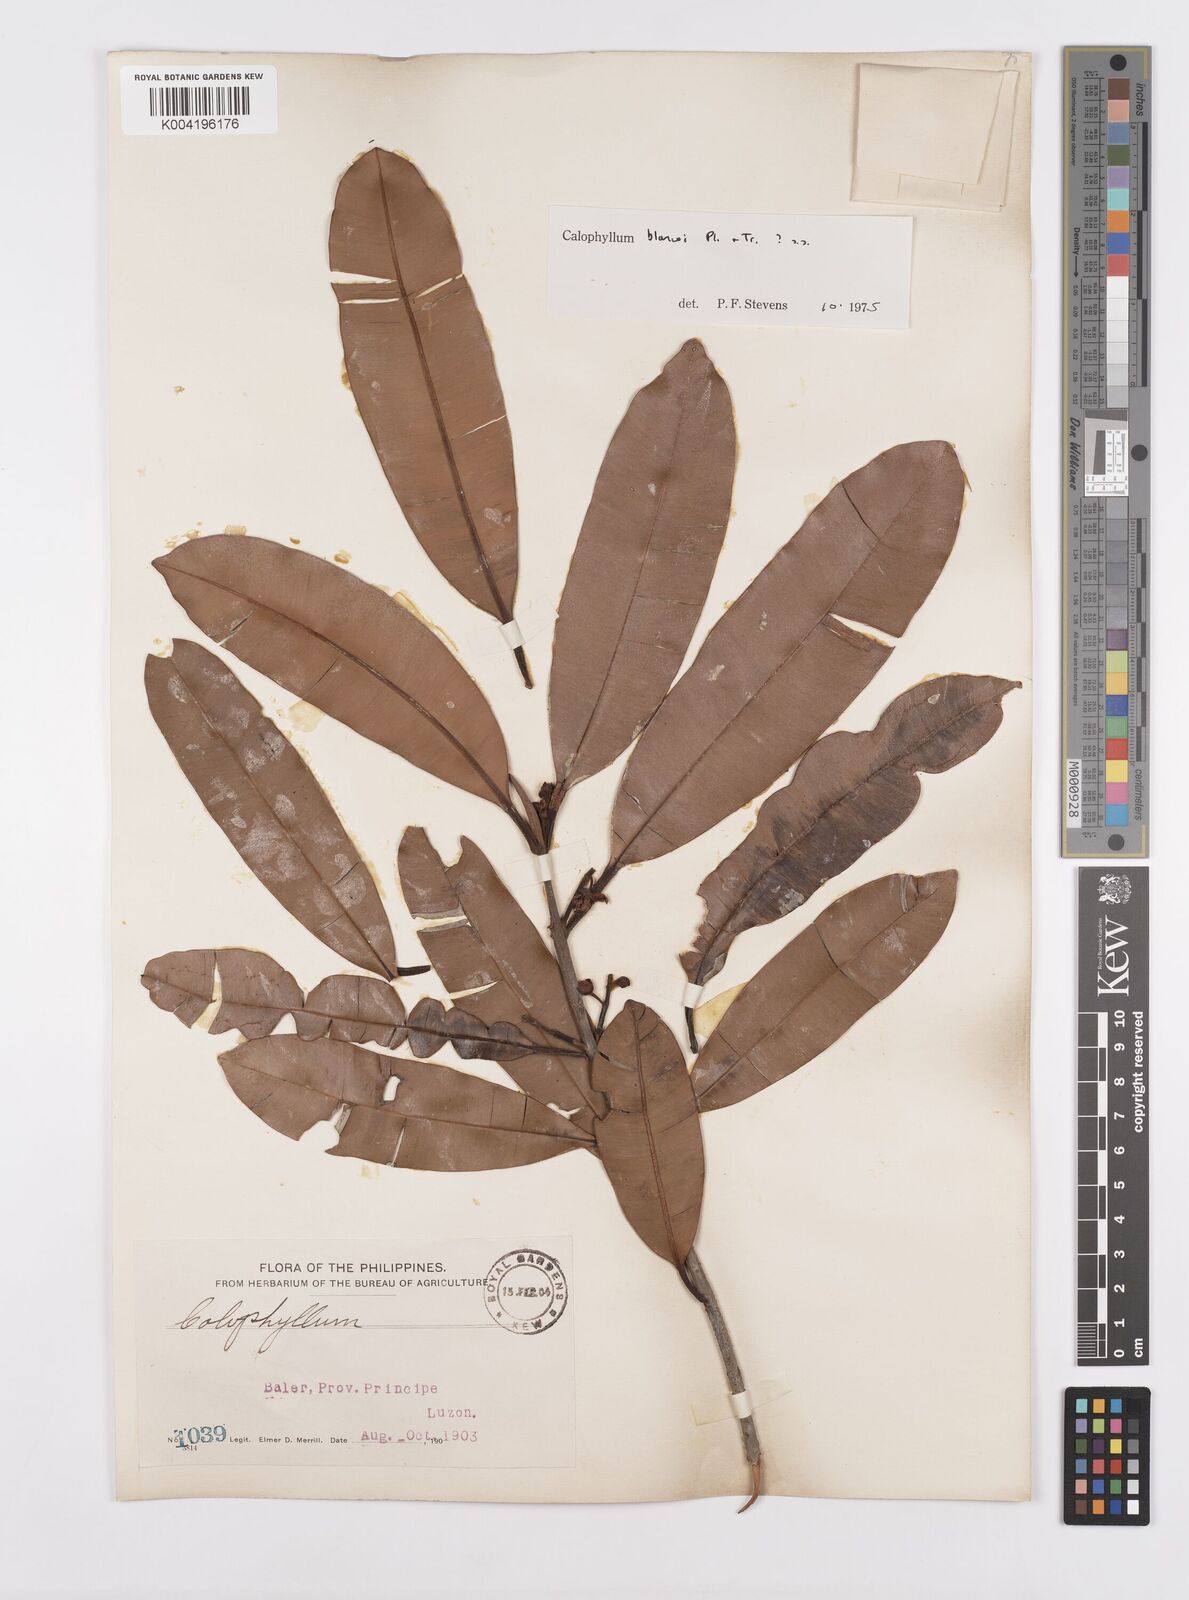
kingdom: Plantae
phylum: Tracheophyta
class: Magnoliopsida
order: Malpighiales
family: Calophyllaceae
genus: Calophyllum
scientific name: Calophyllum blancoi
